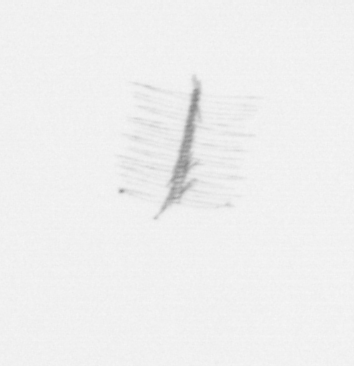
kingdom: Chromista
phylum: Ochrophyta
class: Bacillariophyceae
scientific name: Bacillariophyceae
